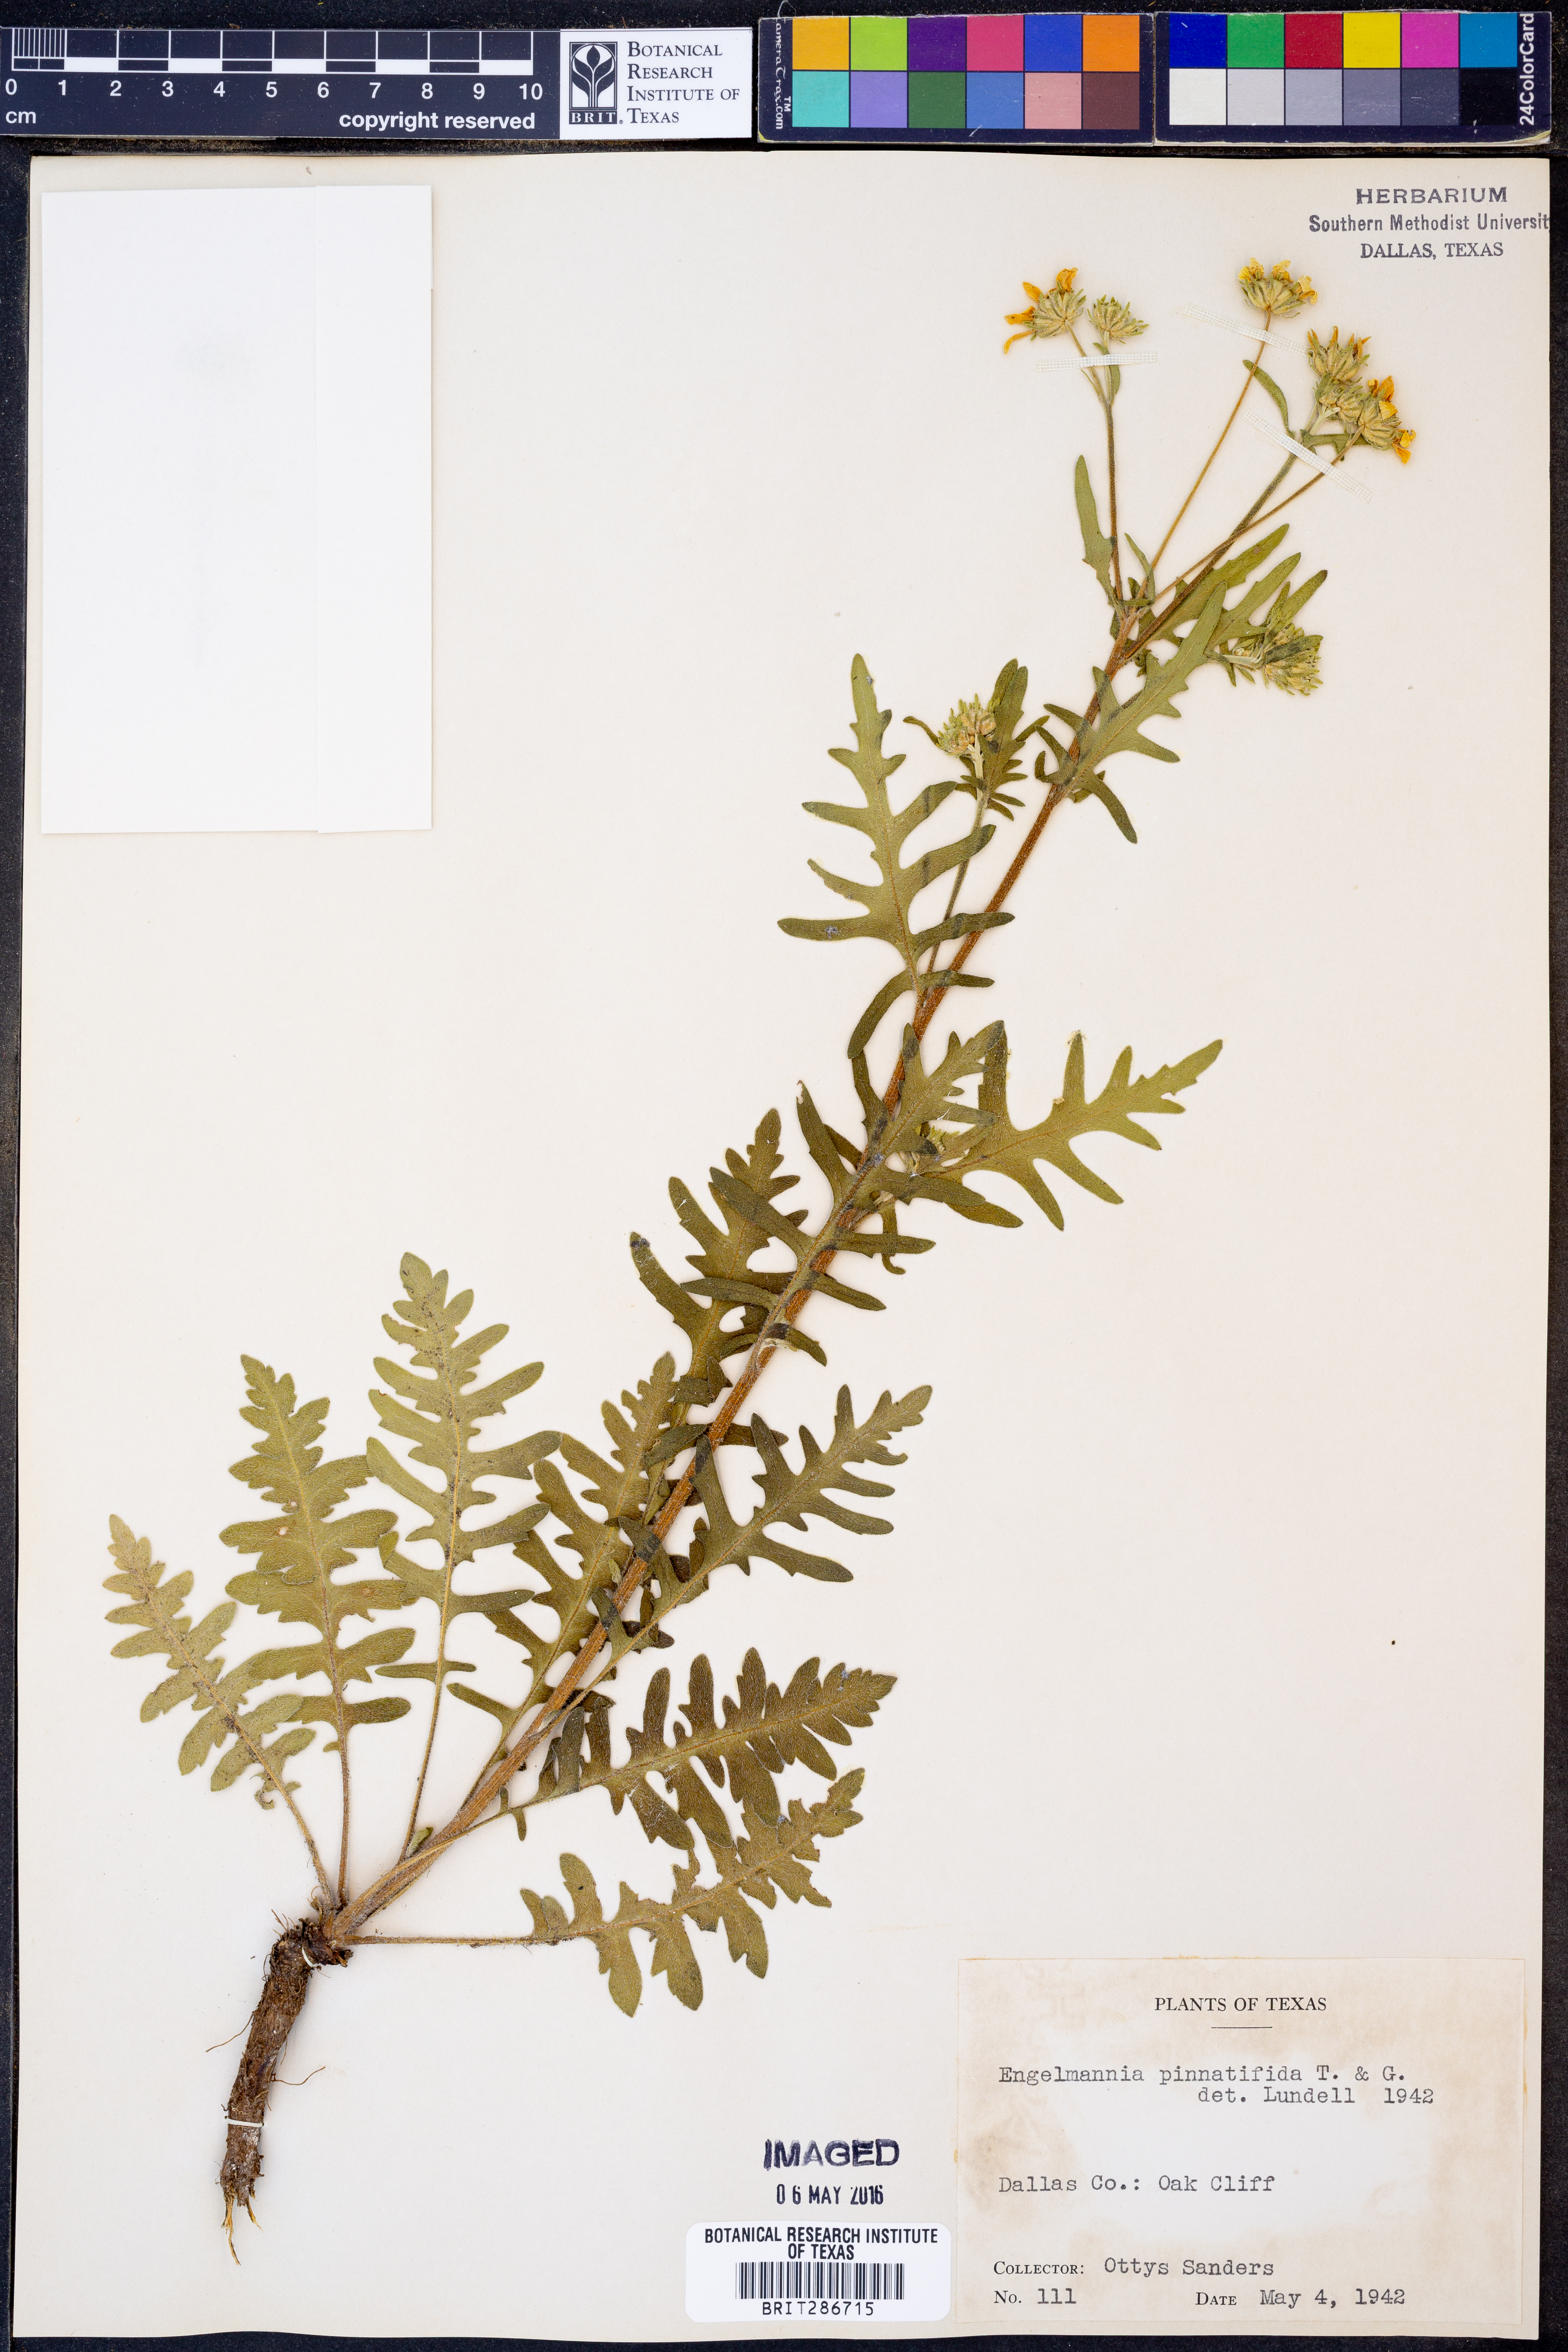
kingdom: Plantae
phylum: Tracheophyta
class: Magnoliopsida
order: Asterales
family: Asteraceae
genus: Engelmannia
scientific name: Engelmannia peristenia
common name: Engelmann's daisy
